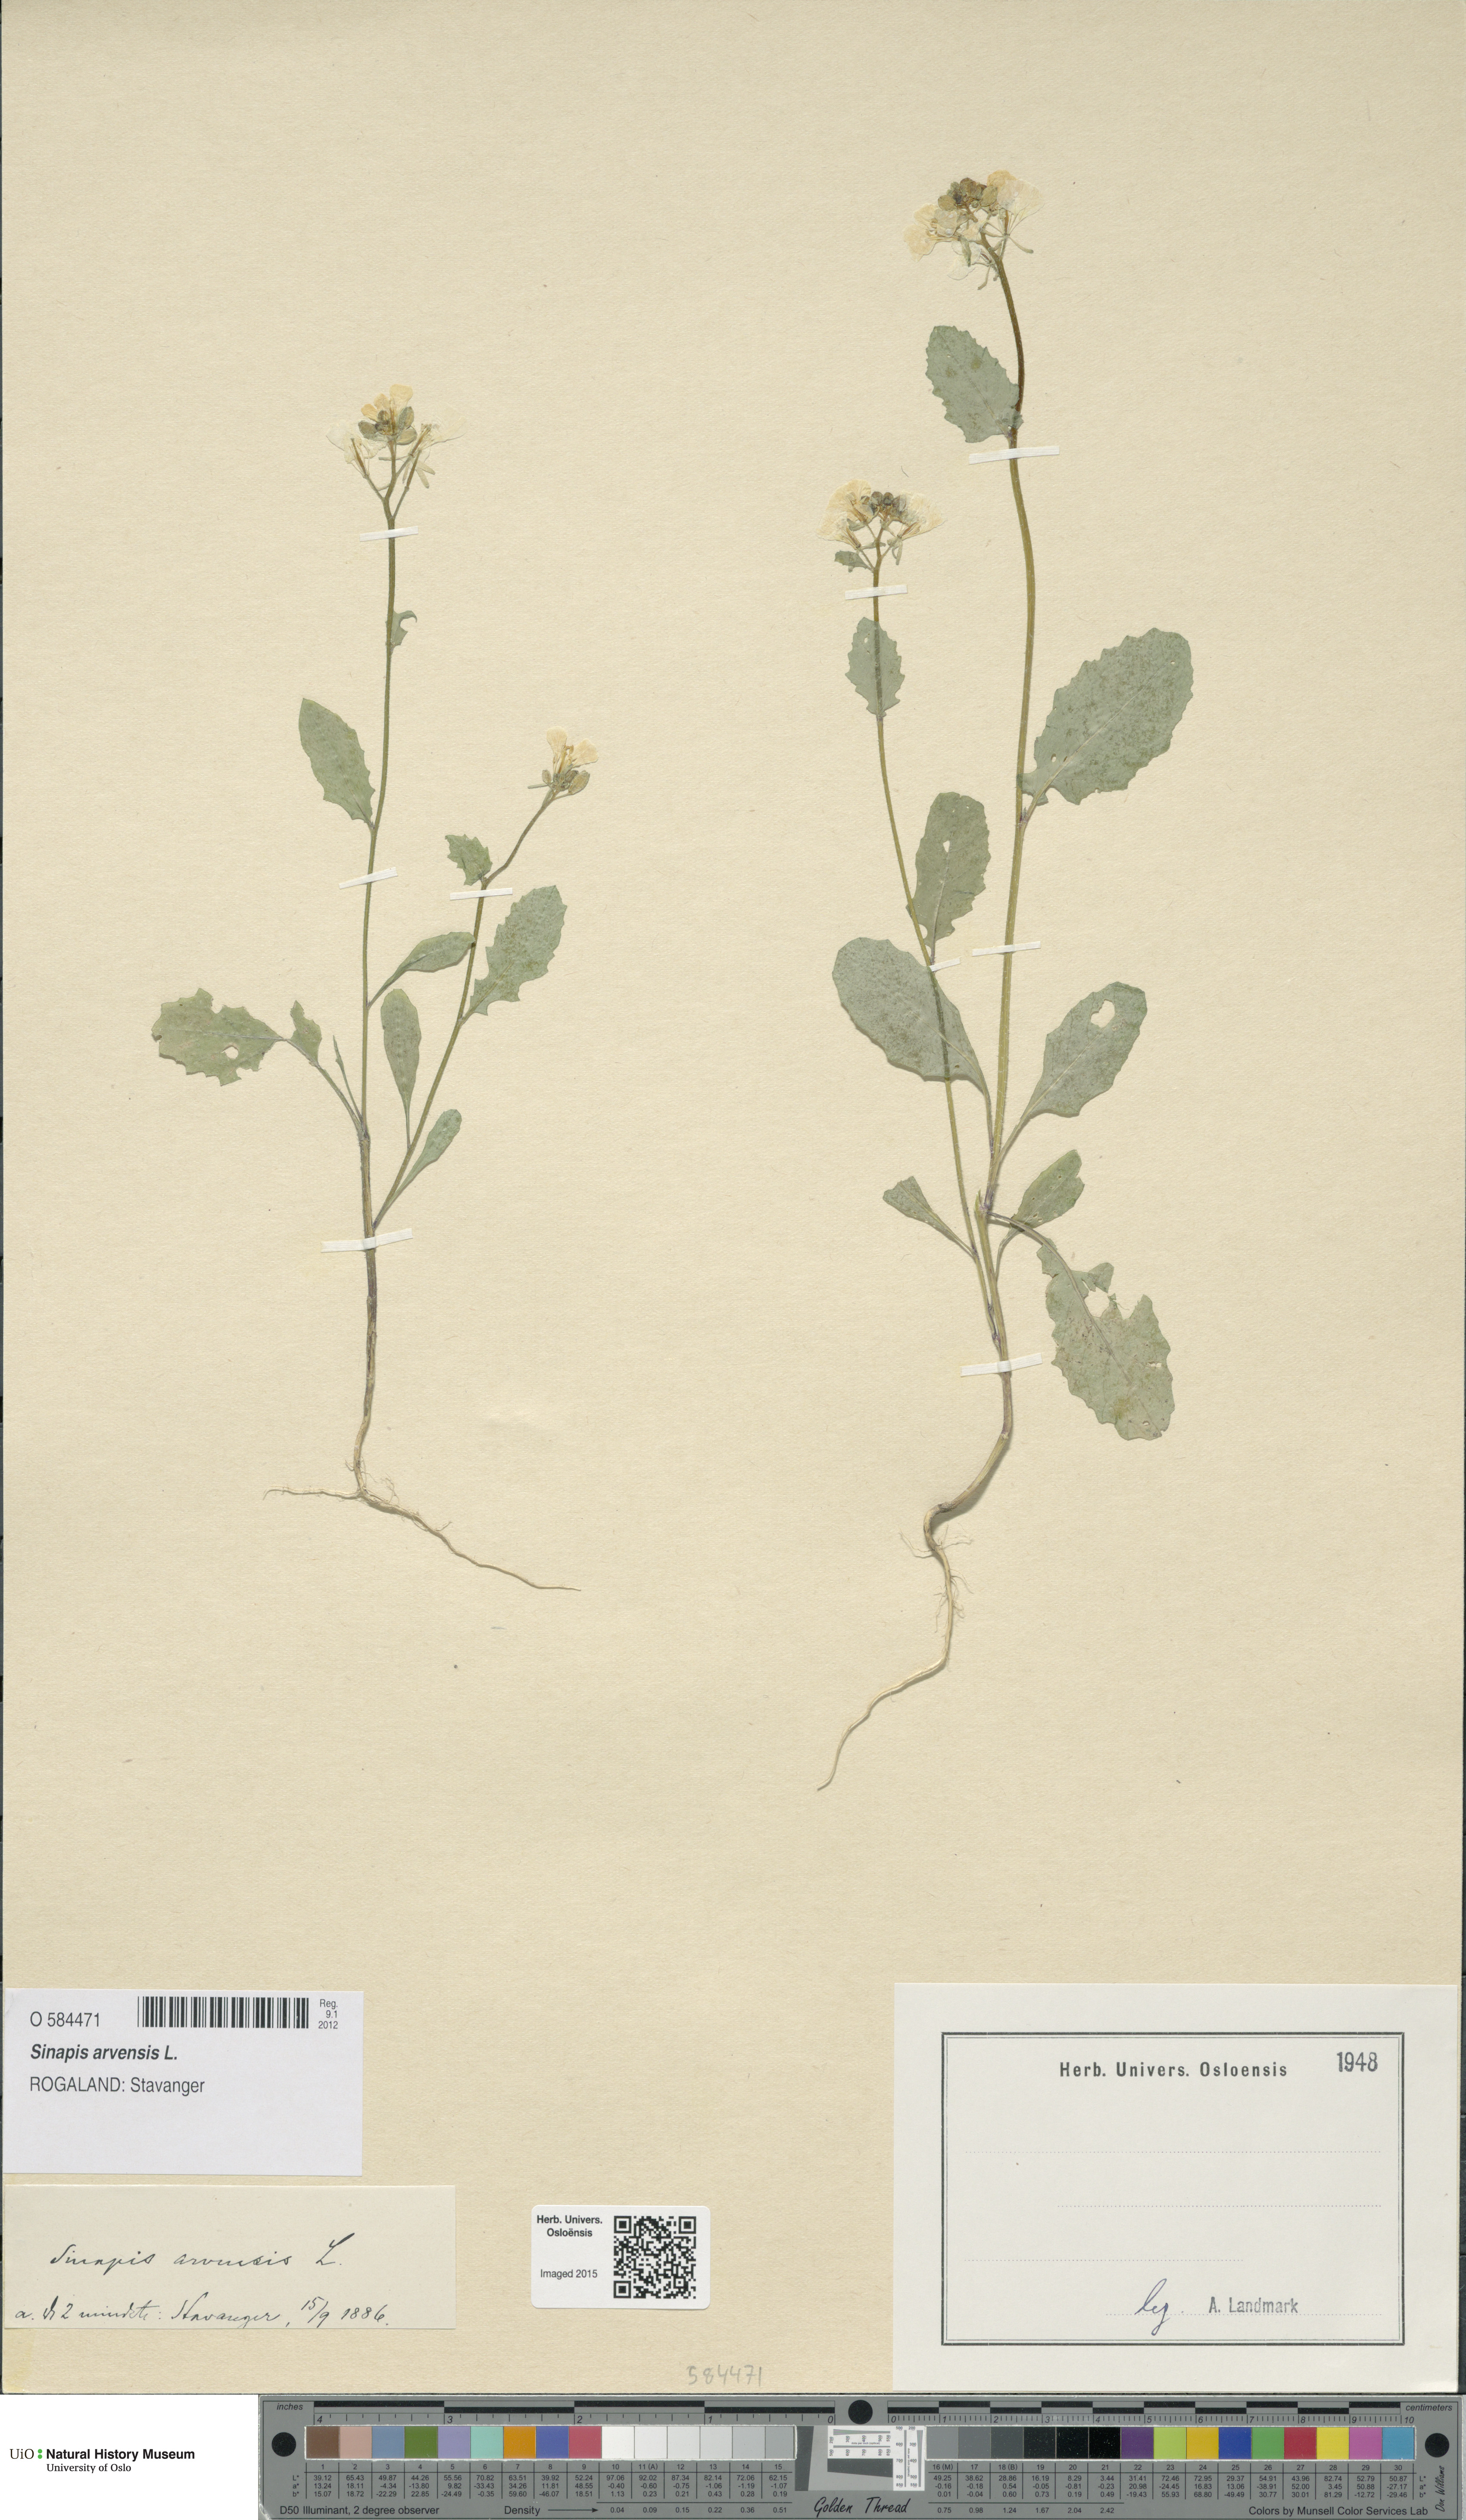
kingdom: Plantae
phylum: Tracheophyta
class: Magnoliopsida
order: Brassicales
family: Brassicaceae
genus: Sinapis
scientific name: Sinapis arvensis
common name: Charlock
